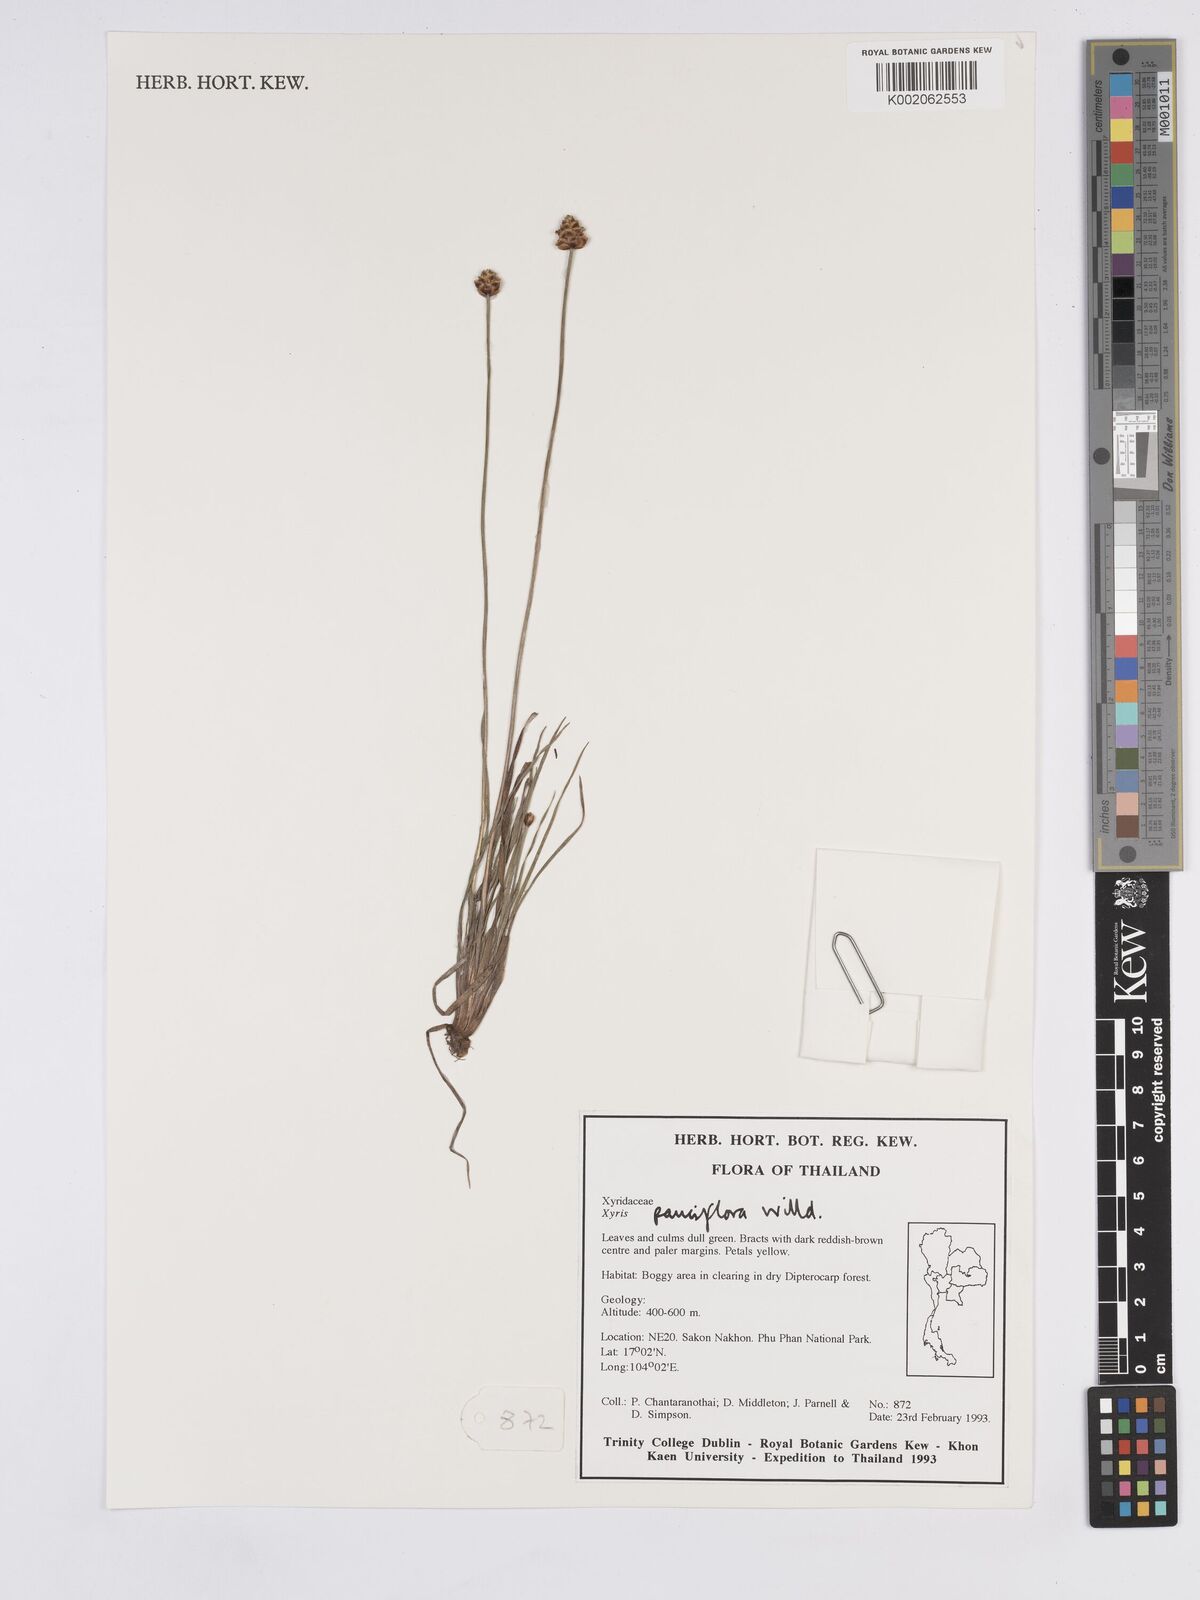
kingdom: Plantae
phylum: Tracheophyta
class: Liliopsida
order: Poales
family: Xyridaceae
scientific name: Xyridaceae
